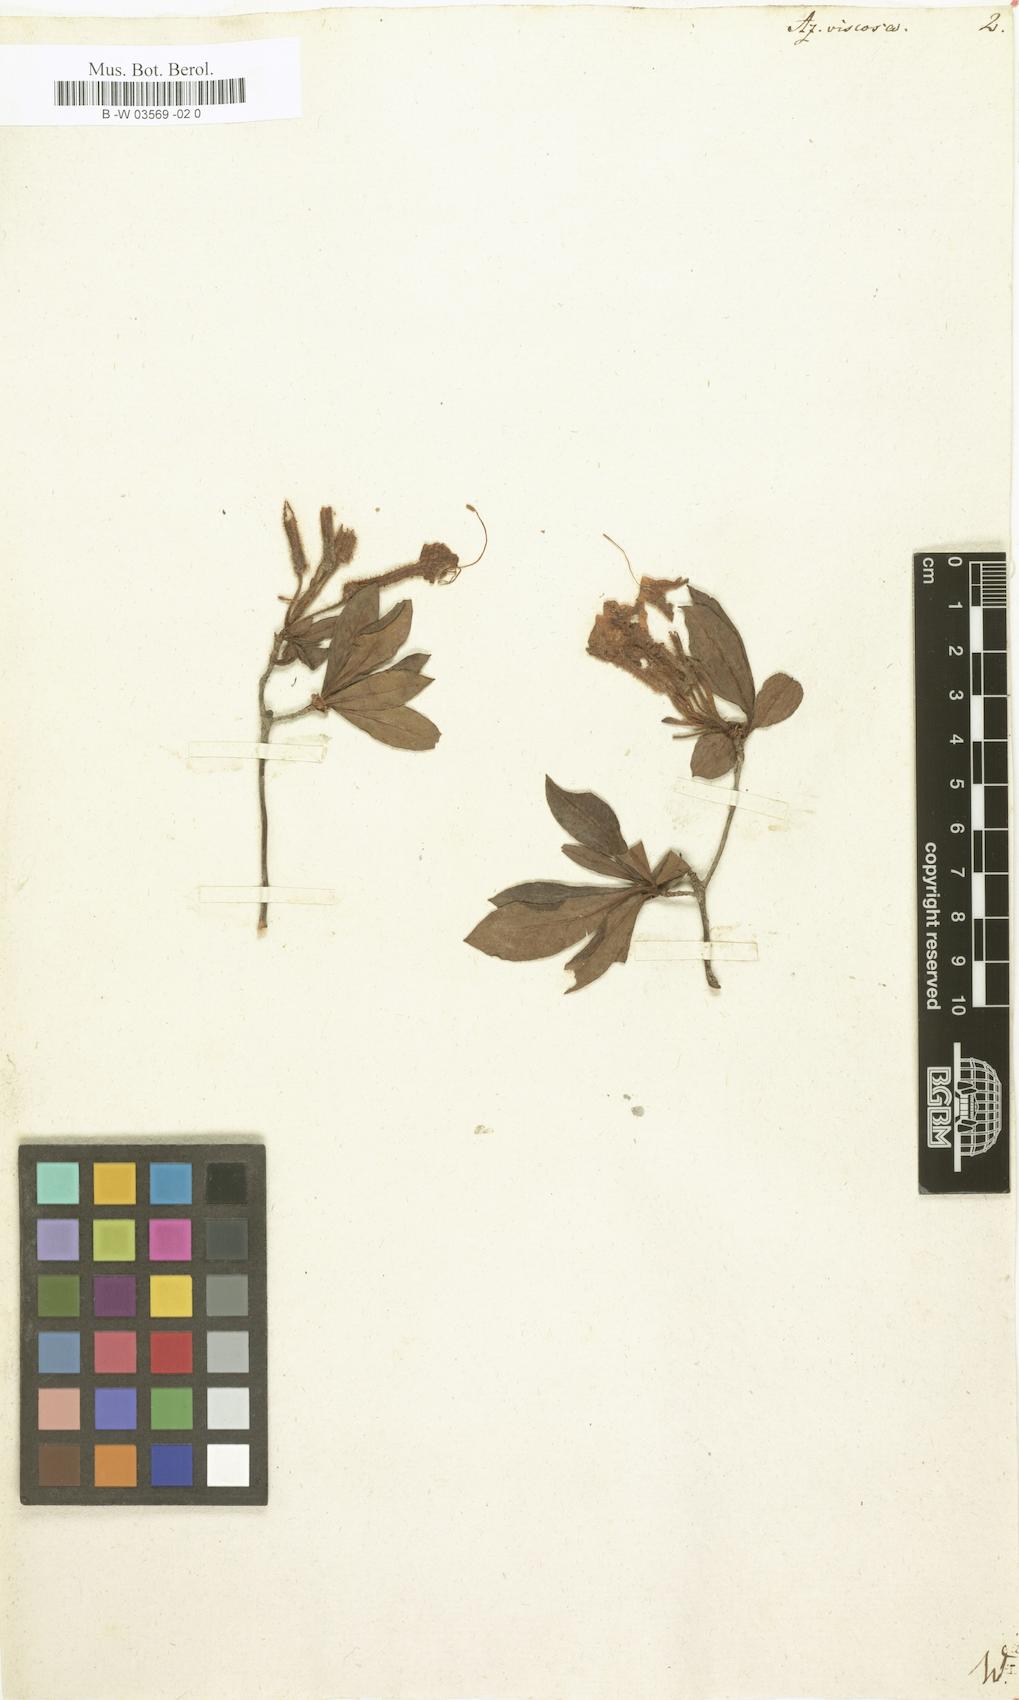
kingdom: Plantae
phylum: Tracheophyta
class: Magnoliopsida
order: Ericales
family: Ericaceae
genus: Rhododendron
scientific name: Rhododendron viscosum
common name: Clammy azalea
